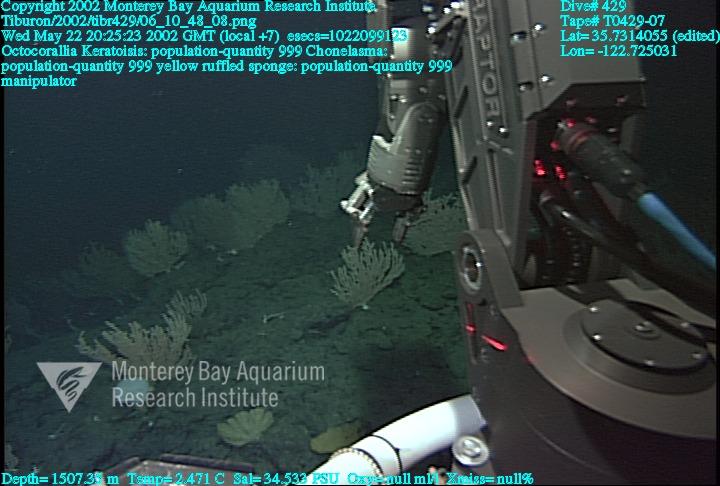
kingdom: Animalia
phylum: Porifera
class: Hexactinellida
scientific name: Hexactinellida
